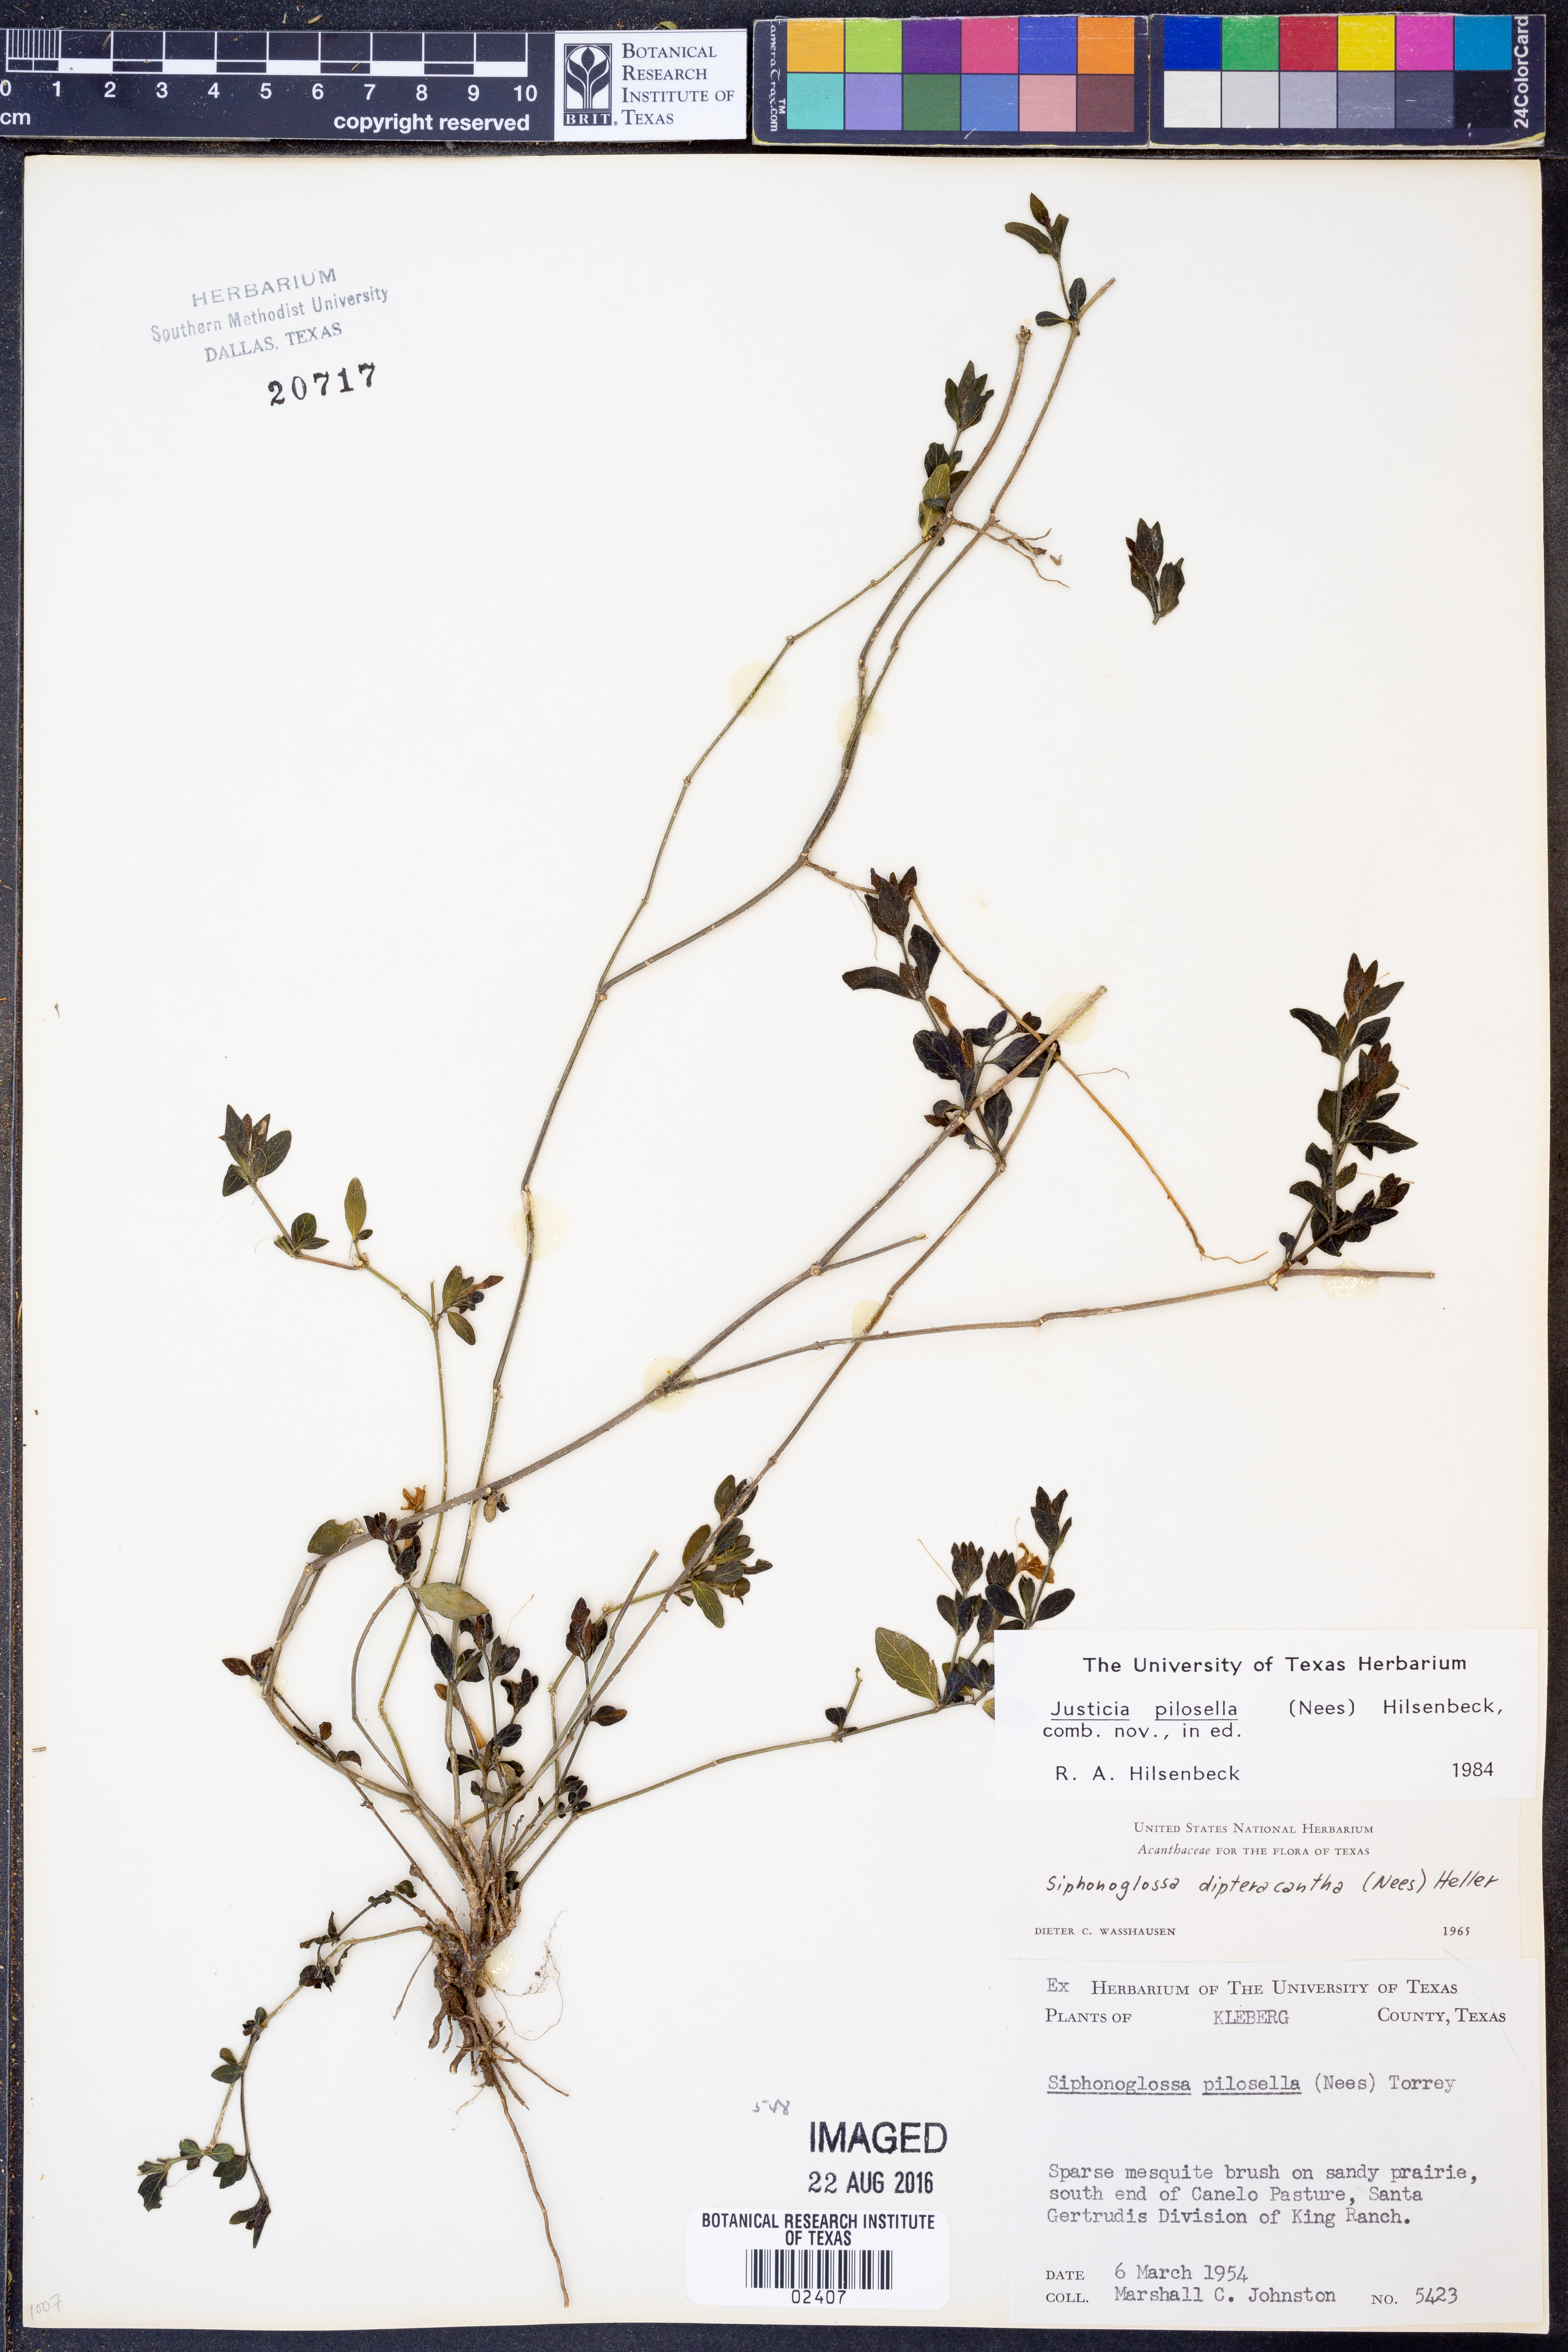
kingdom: Plantae
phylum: Tracheophyta
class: Magnoliopsida
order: Lamiales
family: Acanthaceae
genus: Justicia
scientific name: Justicia pilosella
